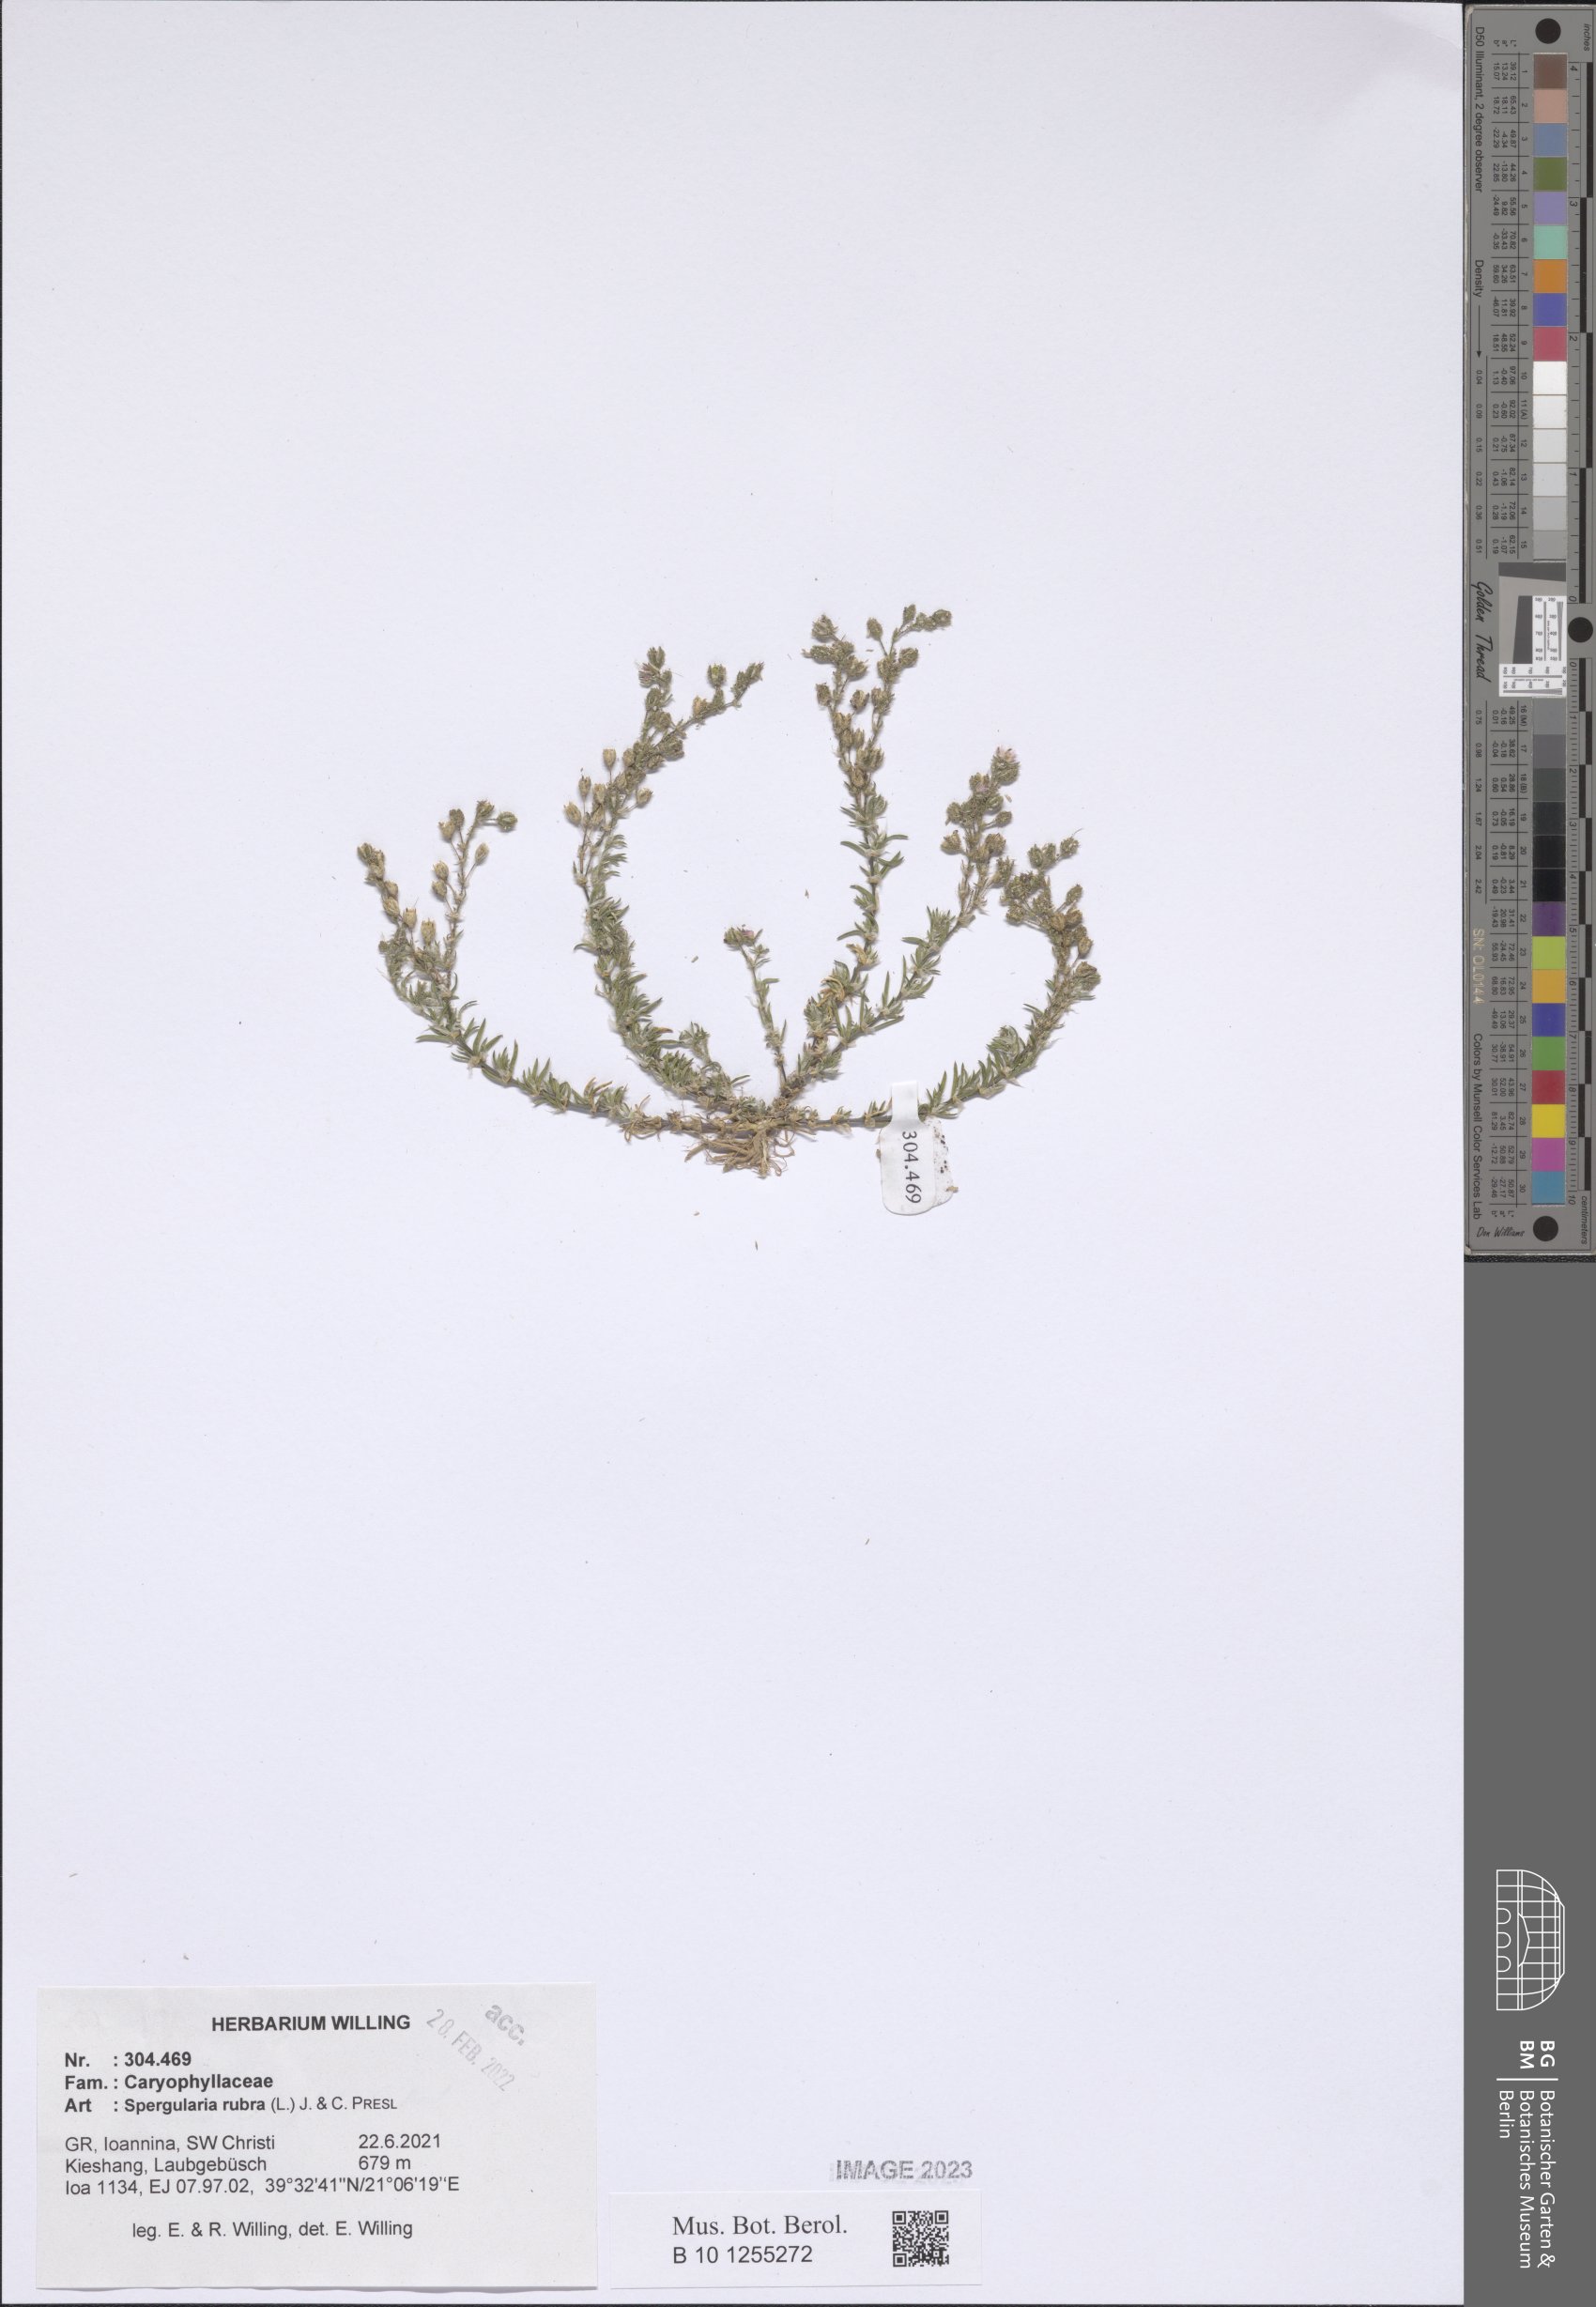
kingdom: Plantae
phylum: Tracheophyta
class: Magnoliopsida
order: Caryophyllales
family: Caryophyllaceae
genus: Spergularia
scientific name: Spergularia rubra
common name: Red sand-spurrey
